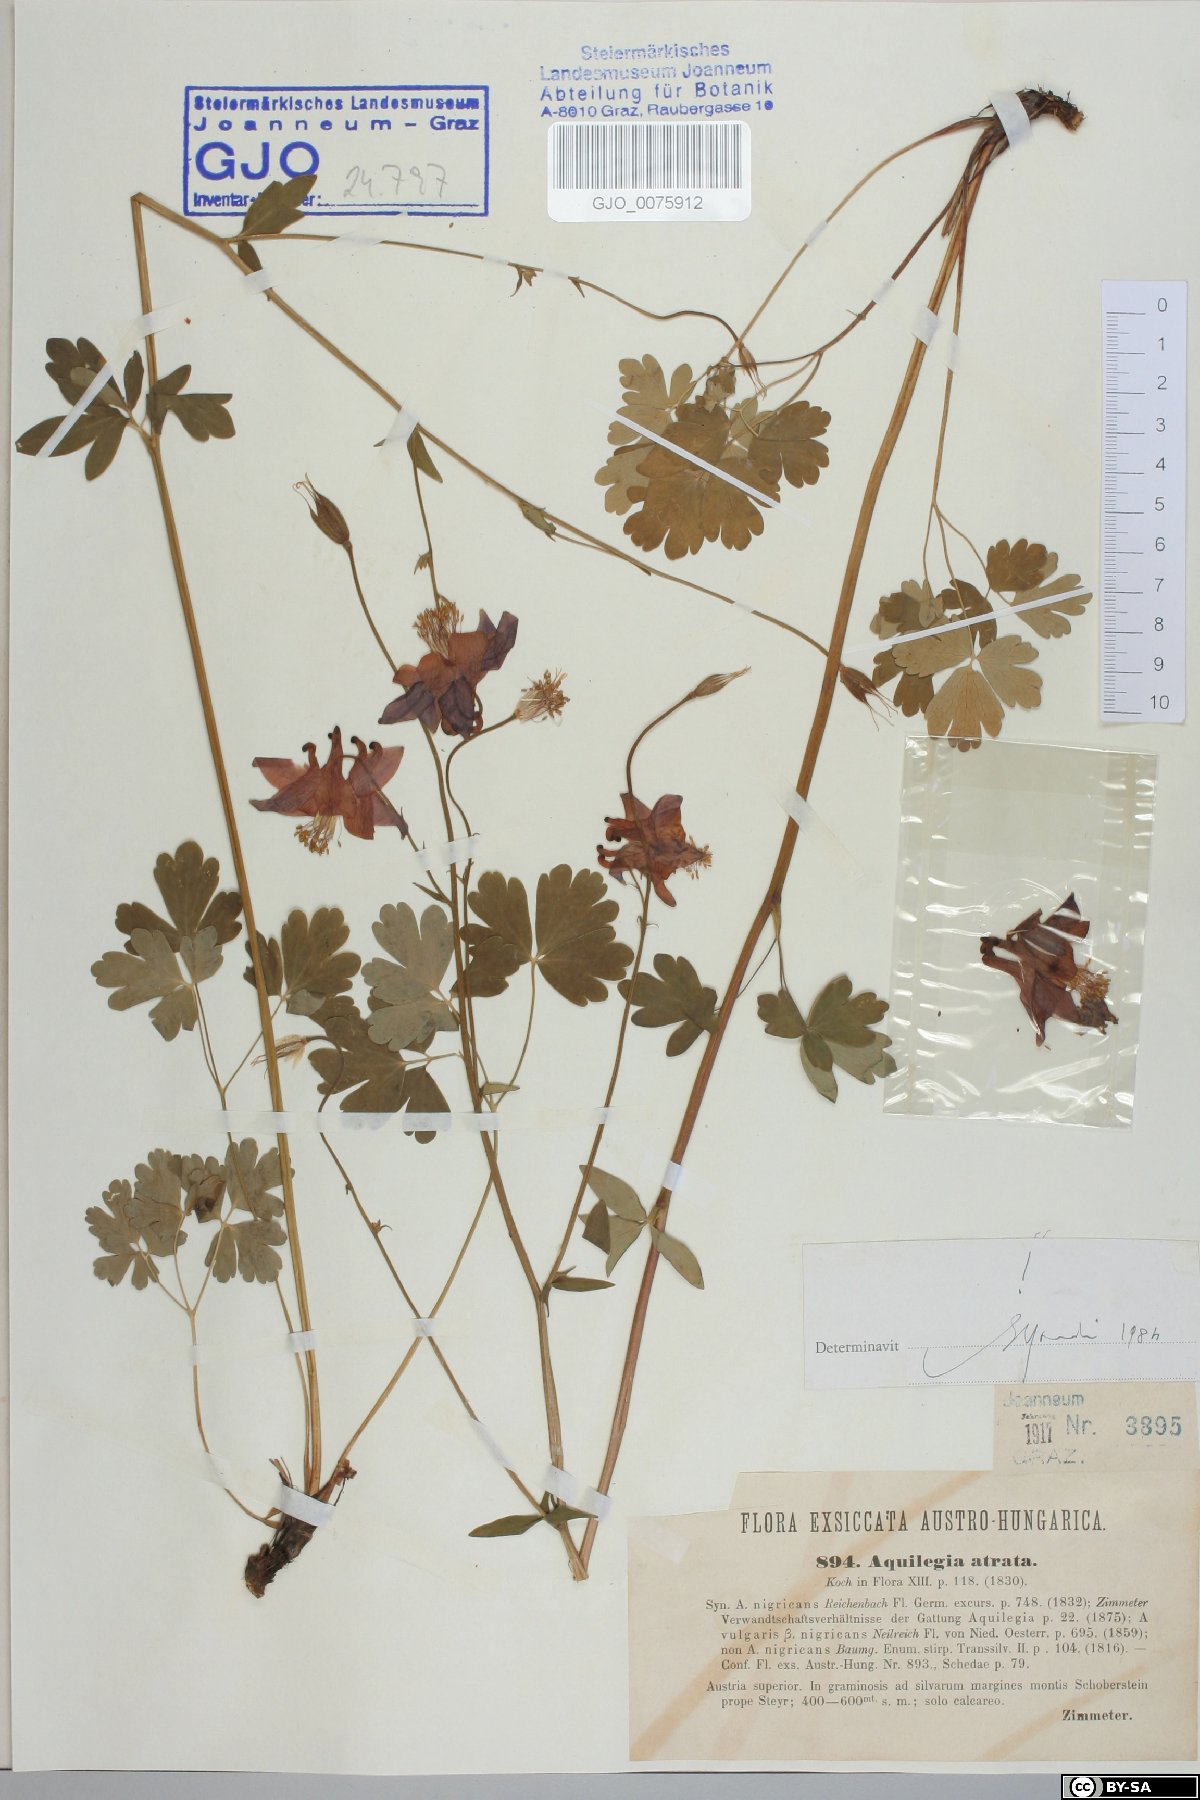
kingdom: Plantae
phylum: Tracheophyta
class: Magnoliopsida
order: Ranunculales
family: Ranunculaceae
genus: Aquilegia
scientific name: Aquilegia atrata
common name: Dark columbine
